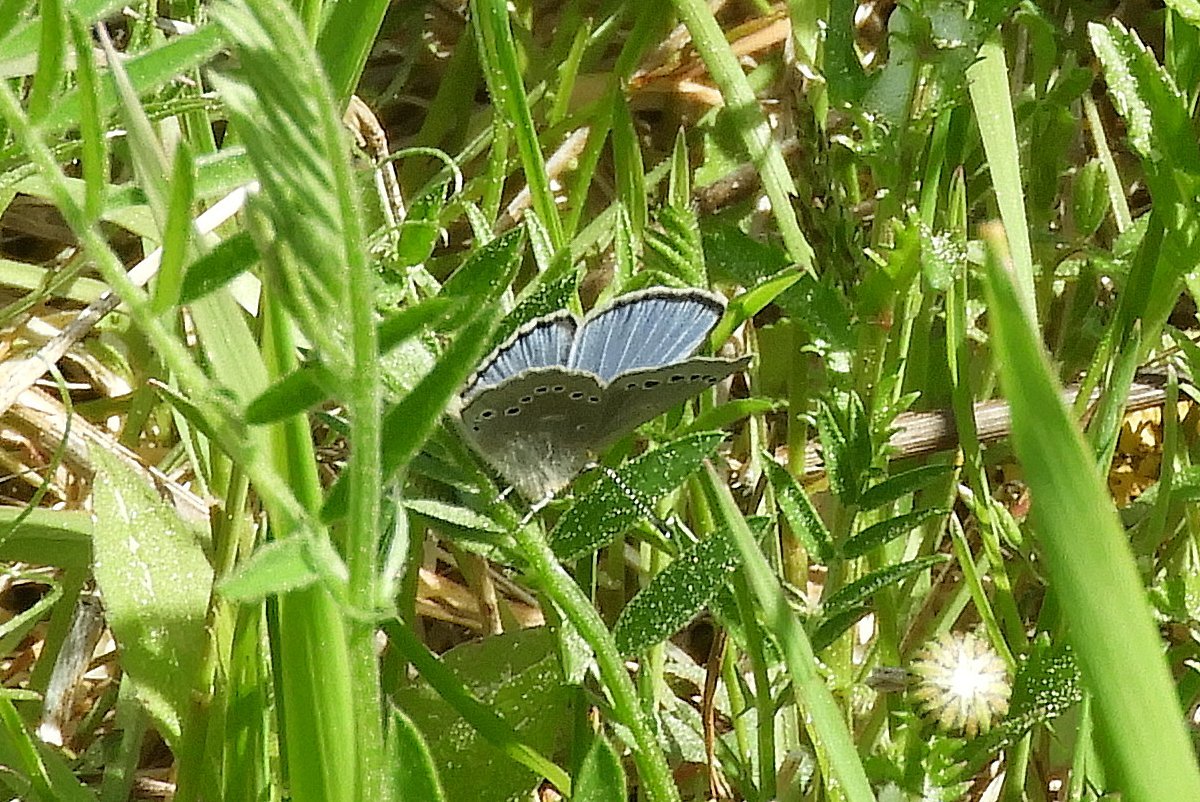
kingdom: Animalia
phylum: Arthropoda
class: Insecta
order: Lepidoptera
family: Lycaenidae
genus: Glaucopsyche
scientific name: Glaucopsyche lygdamus
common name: Silvery Blue
